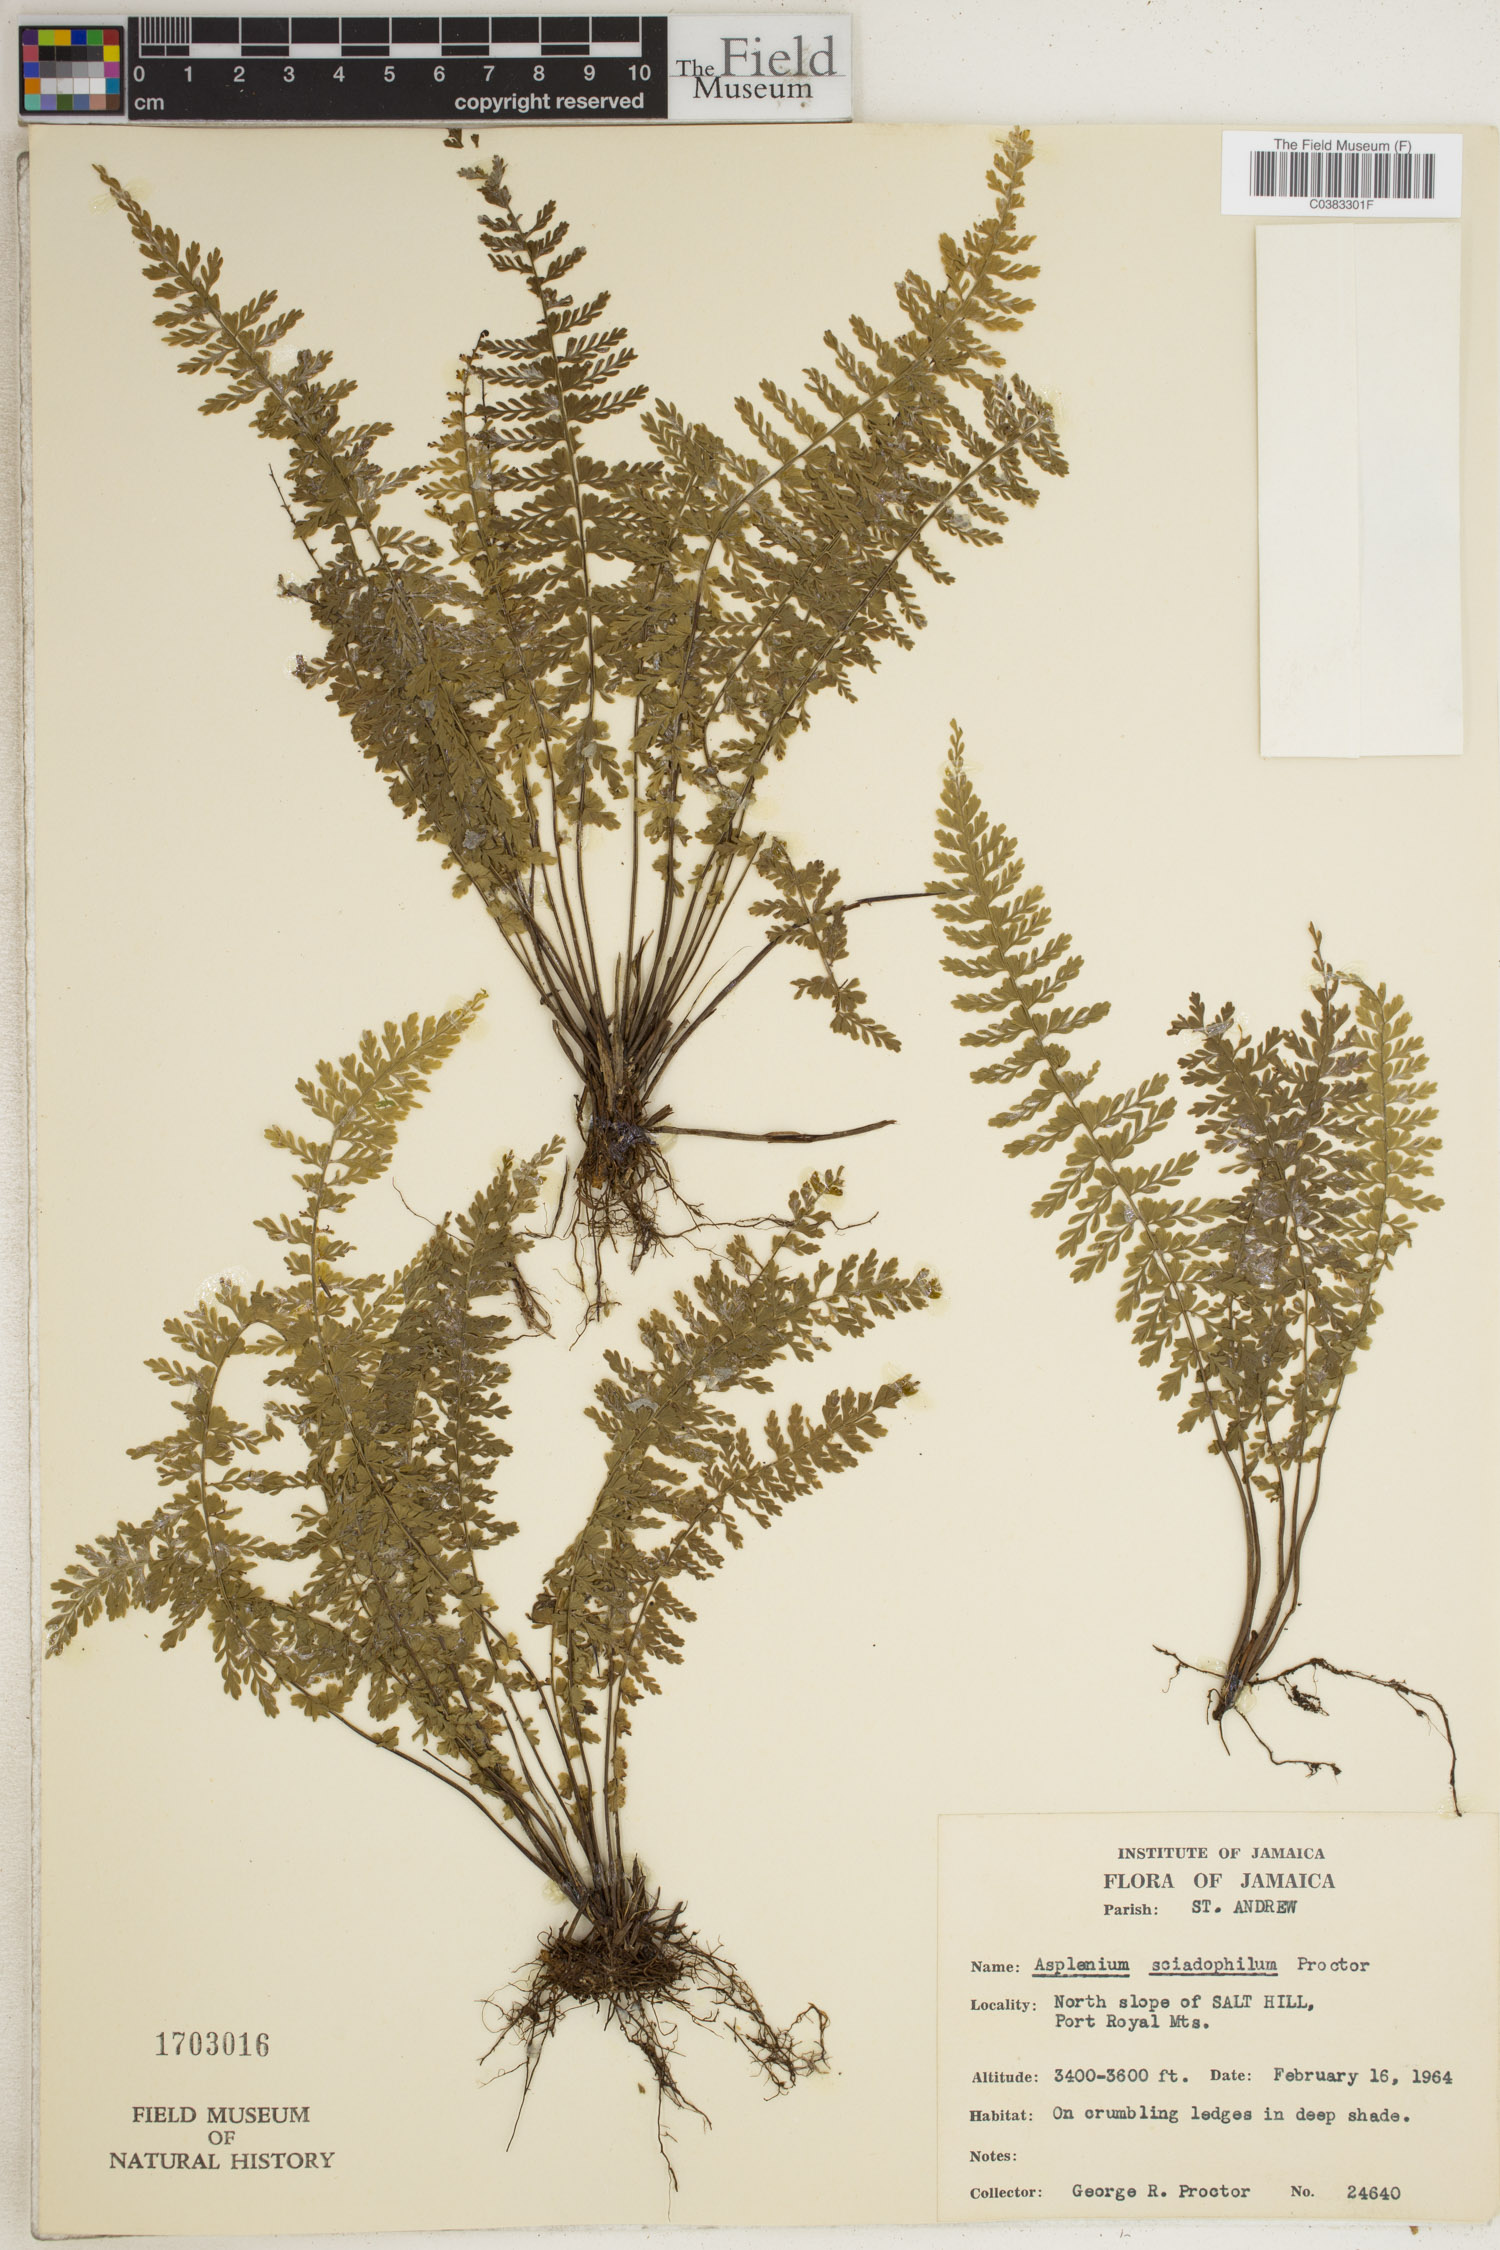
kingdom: Plantae
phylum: Tracheophyta
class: Polypodiopsida
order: Polypodiales
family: Aspleniaceae
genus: Asplenium
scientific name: Asplenium sciadophilum
